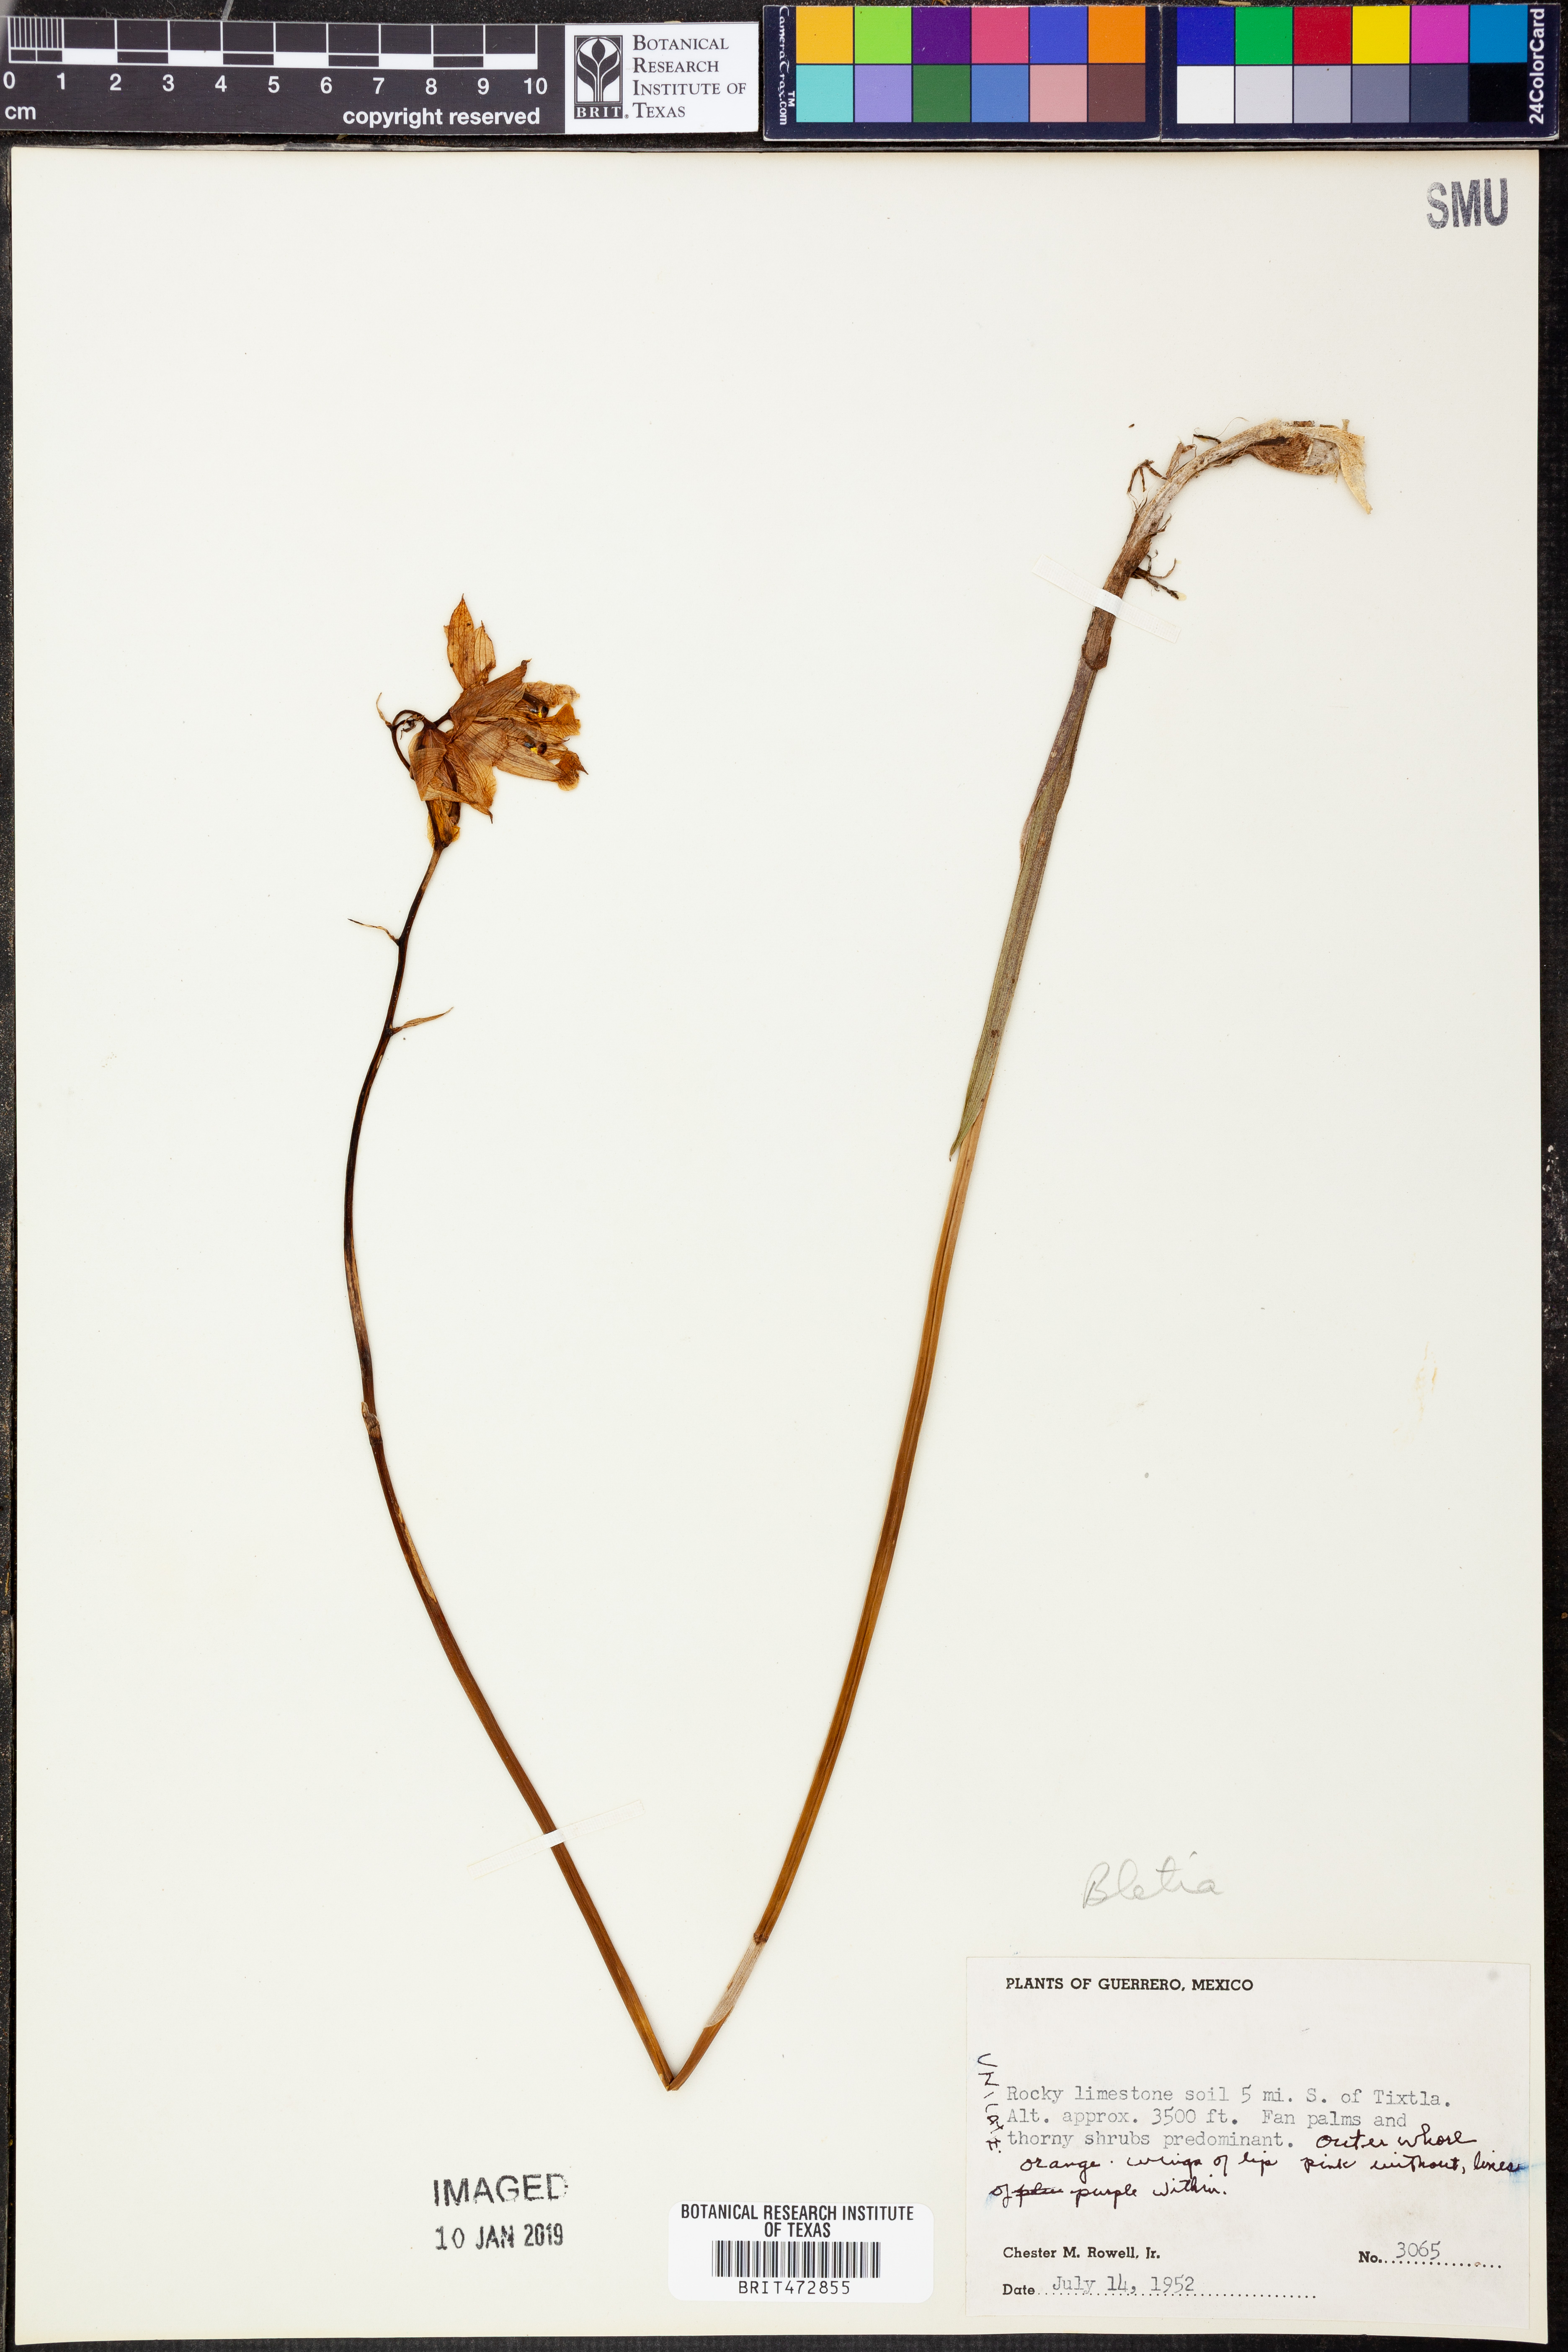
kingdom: Plantae
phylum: Tracheophyta
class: Liliopsida
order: Asparagales
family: Orchidaceae
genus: Bletia
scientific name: Bletia
